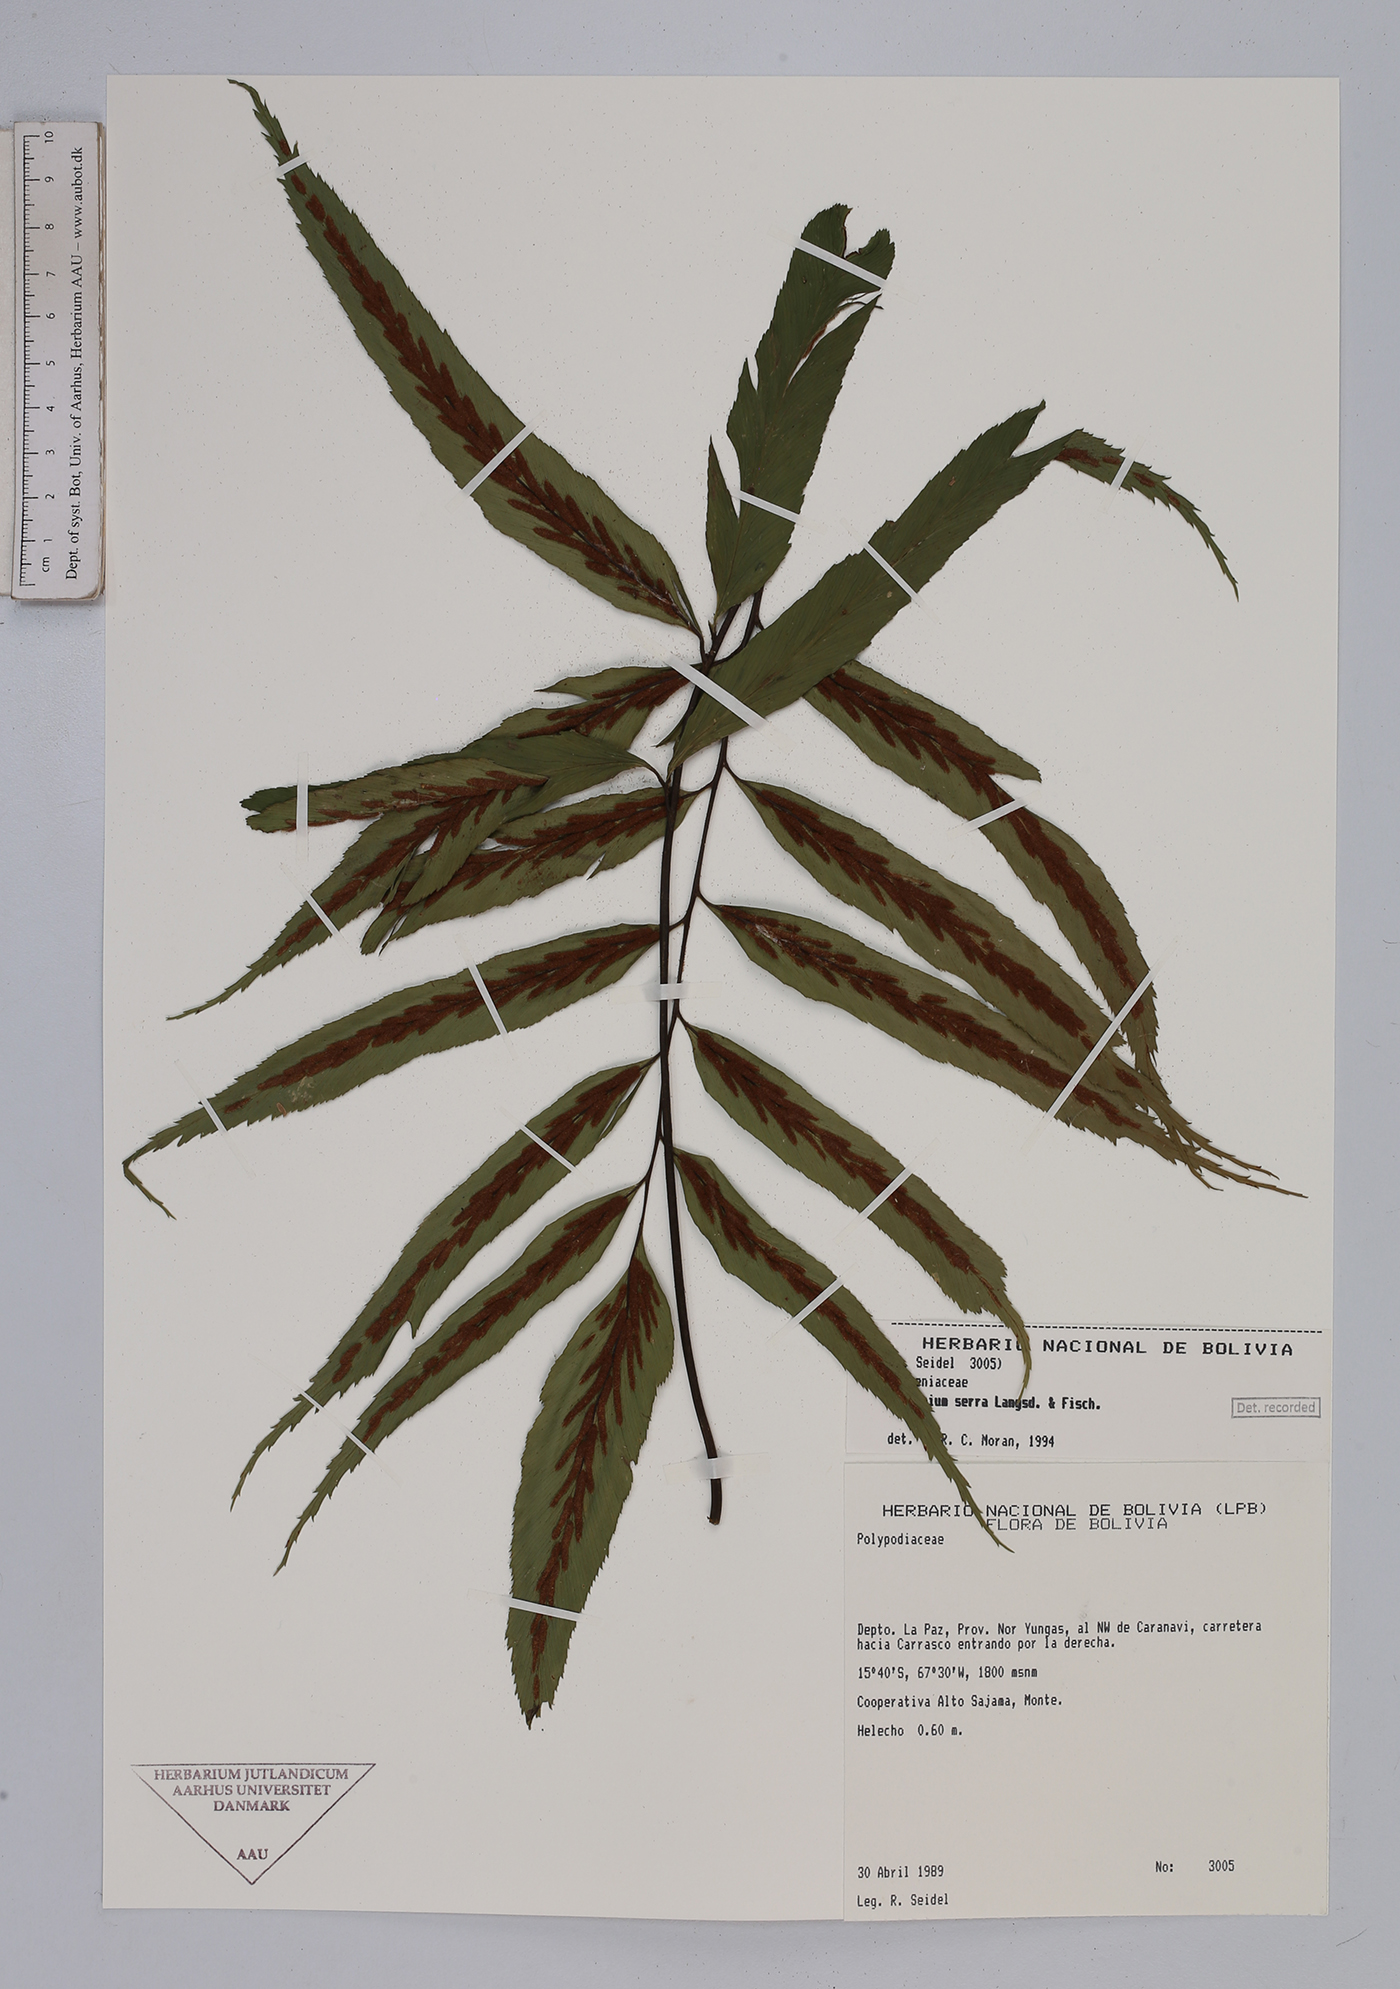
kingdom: Plantae
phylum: Tracheophyta
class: Polypodiopsida
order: Polypodiales
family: Aspleniaceae
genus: Asplenium
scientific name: Asplenium serra
